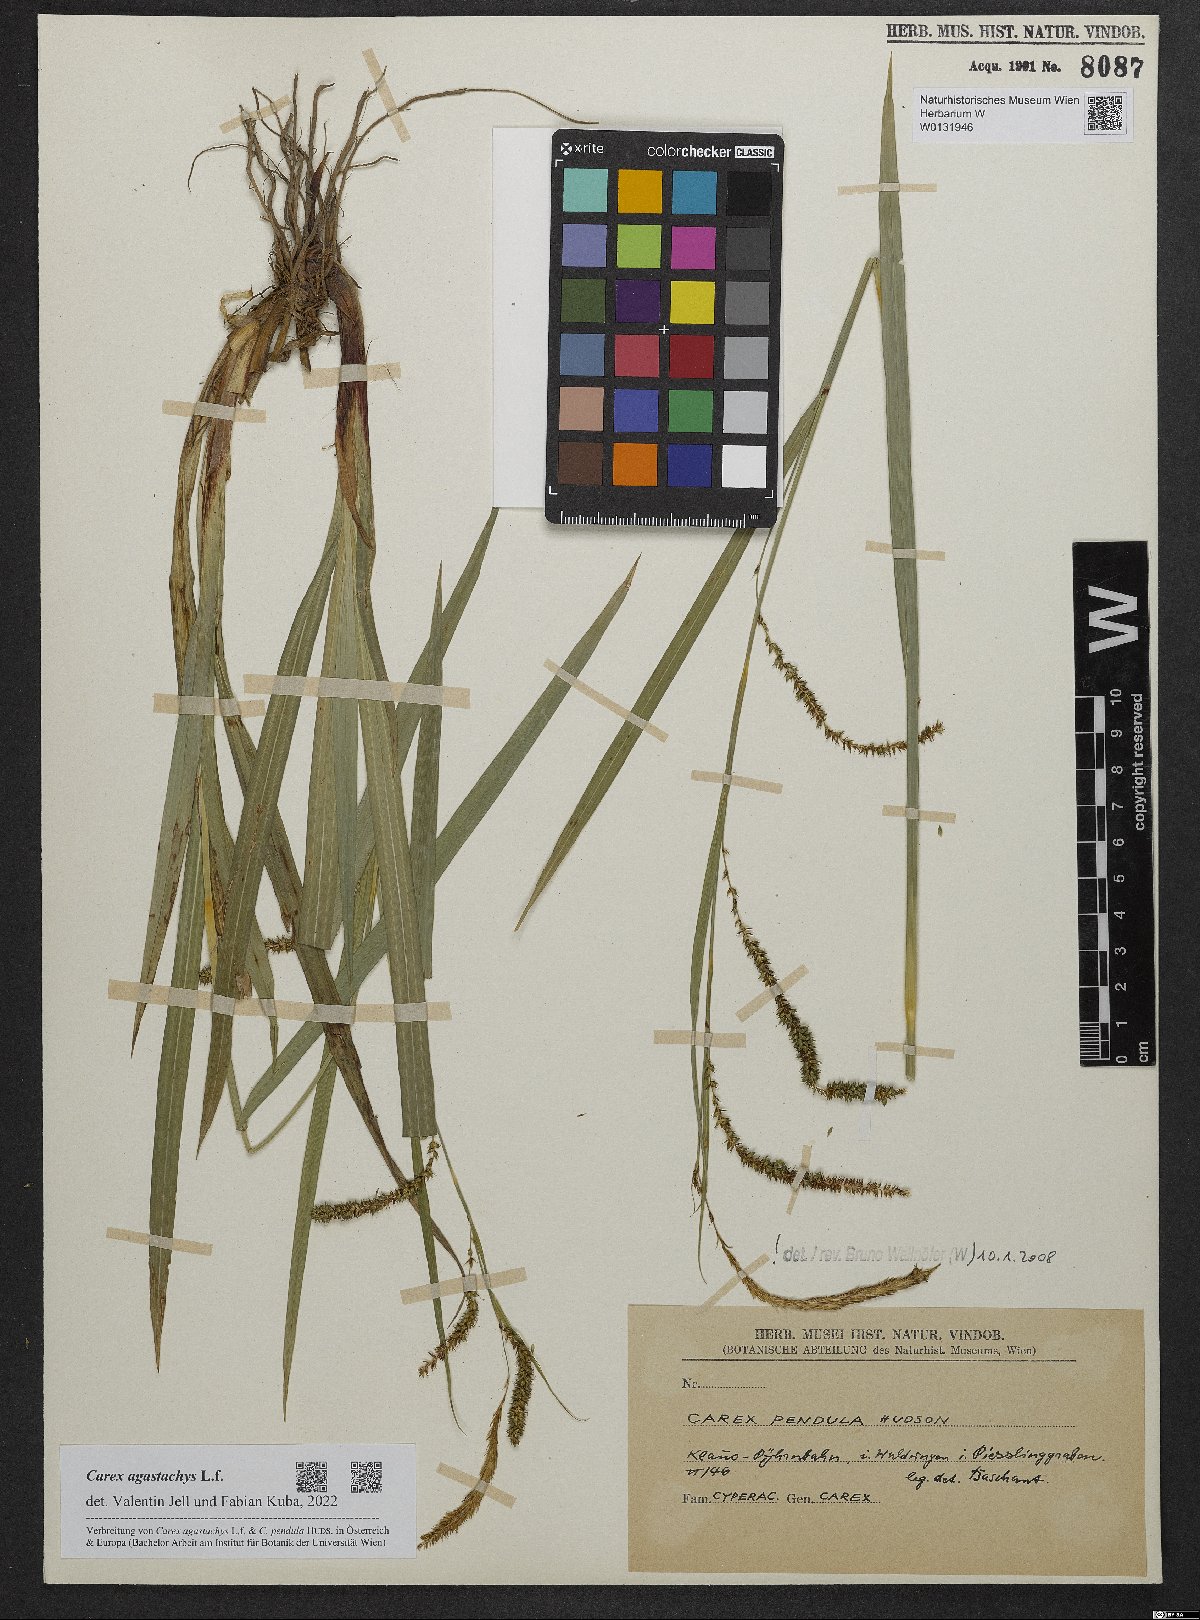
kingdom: Plantae
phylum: Tracheophyta
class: Liliopsida
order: Poales
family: Cyperaceae
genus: Carex
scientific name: Carex agastachys
